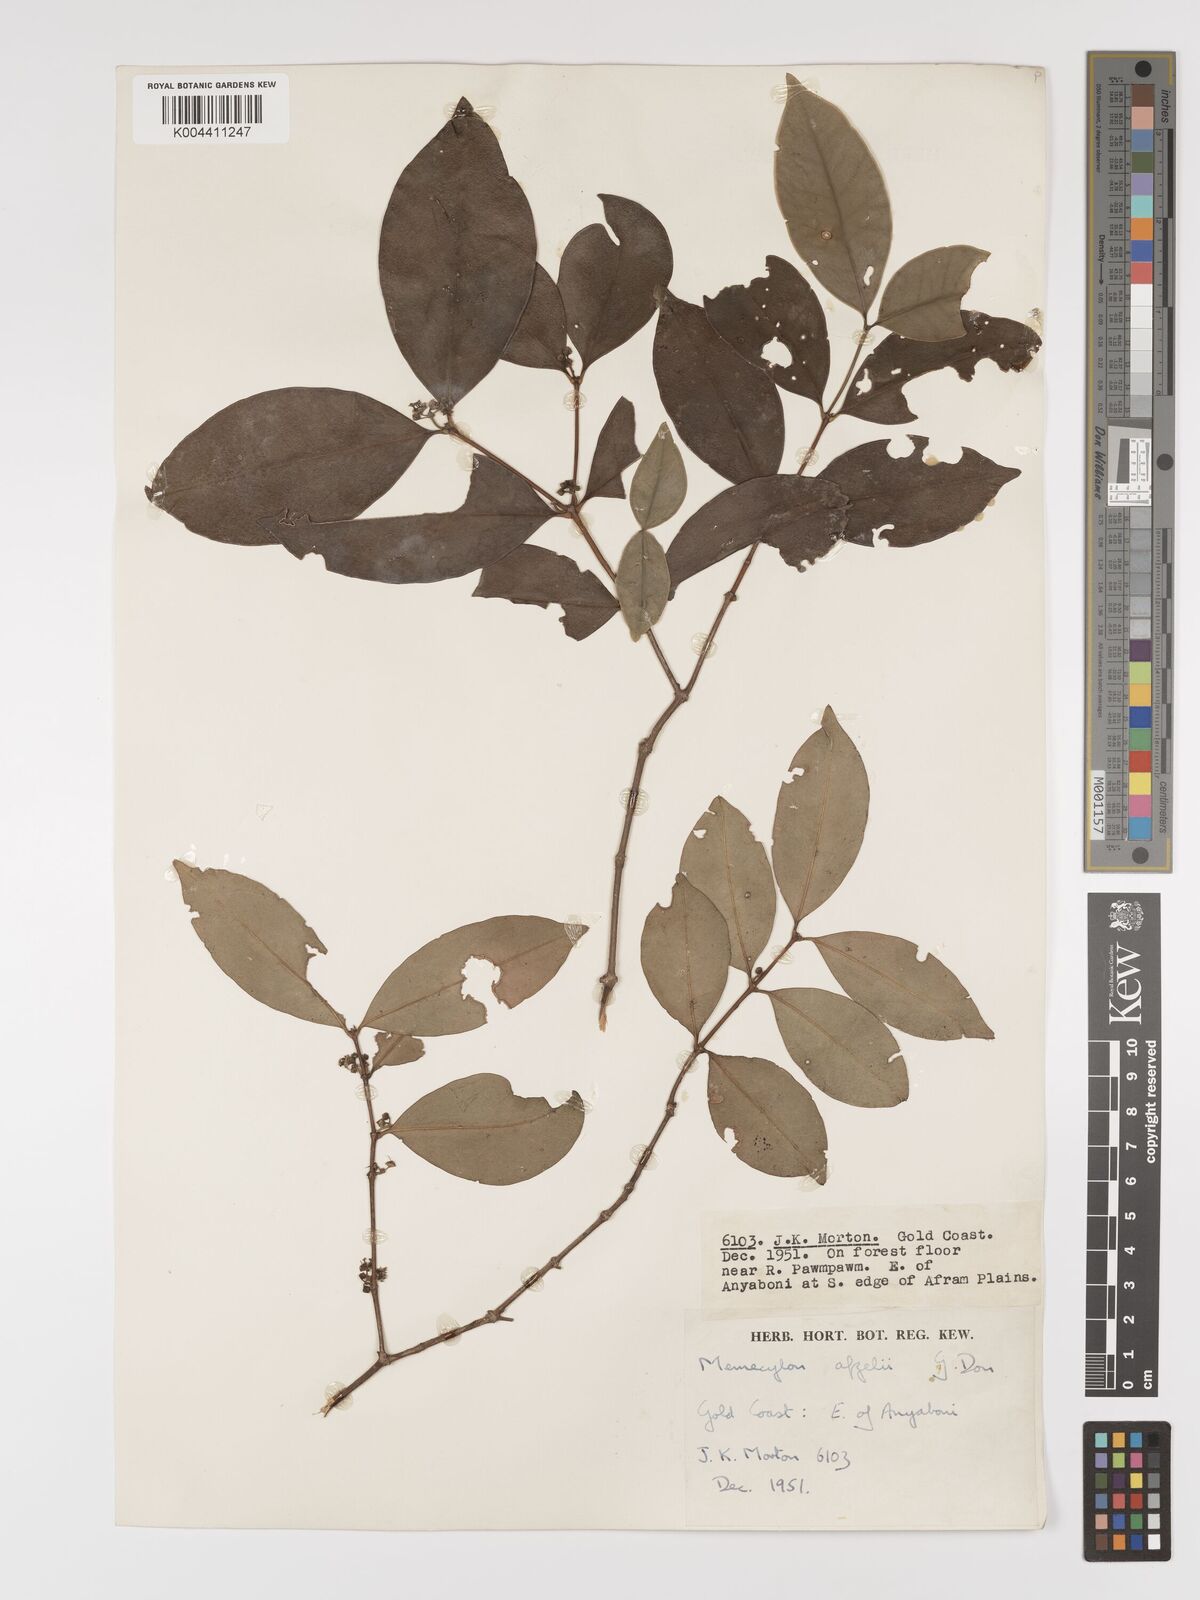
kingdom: Plantae
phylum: Tracheophyta
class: Magnoliopsida
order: Myrtales
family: Melastomataceae
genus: Memecylon
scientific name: Memecylon afzelii
